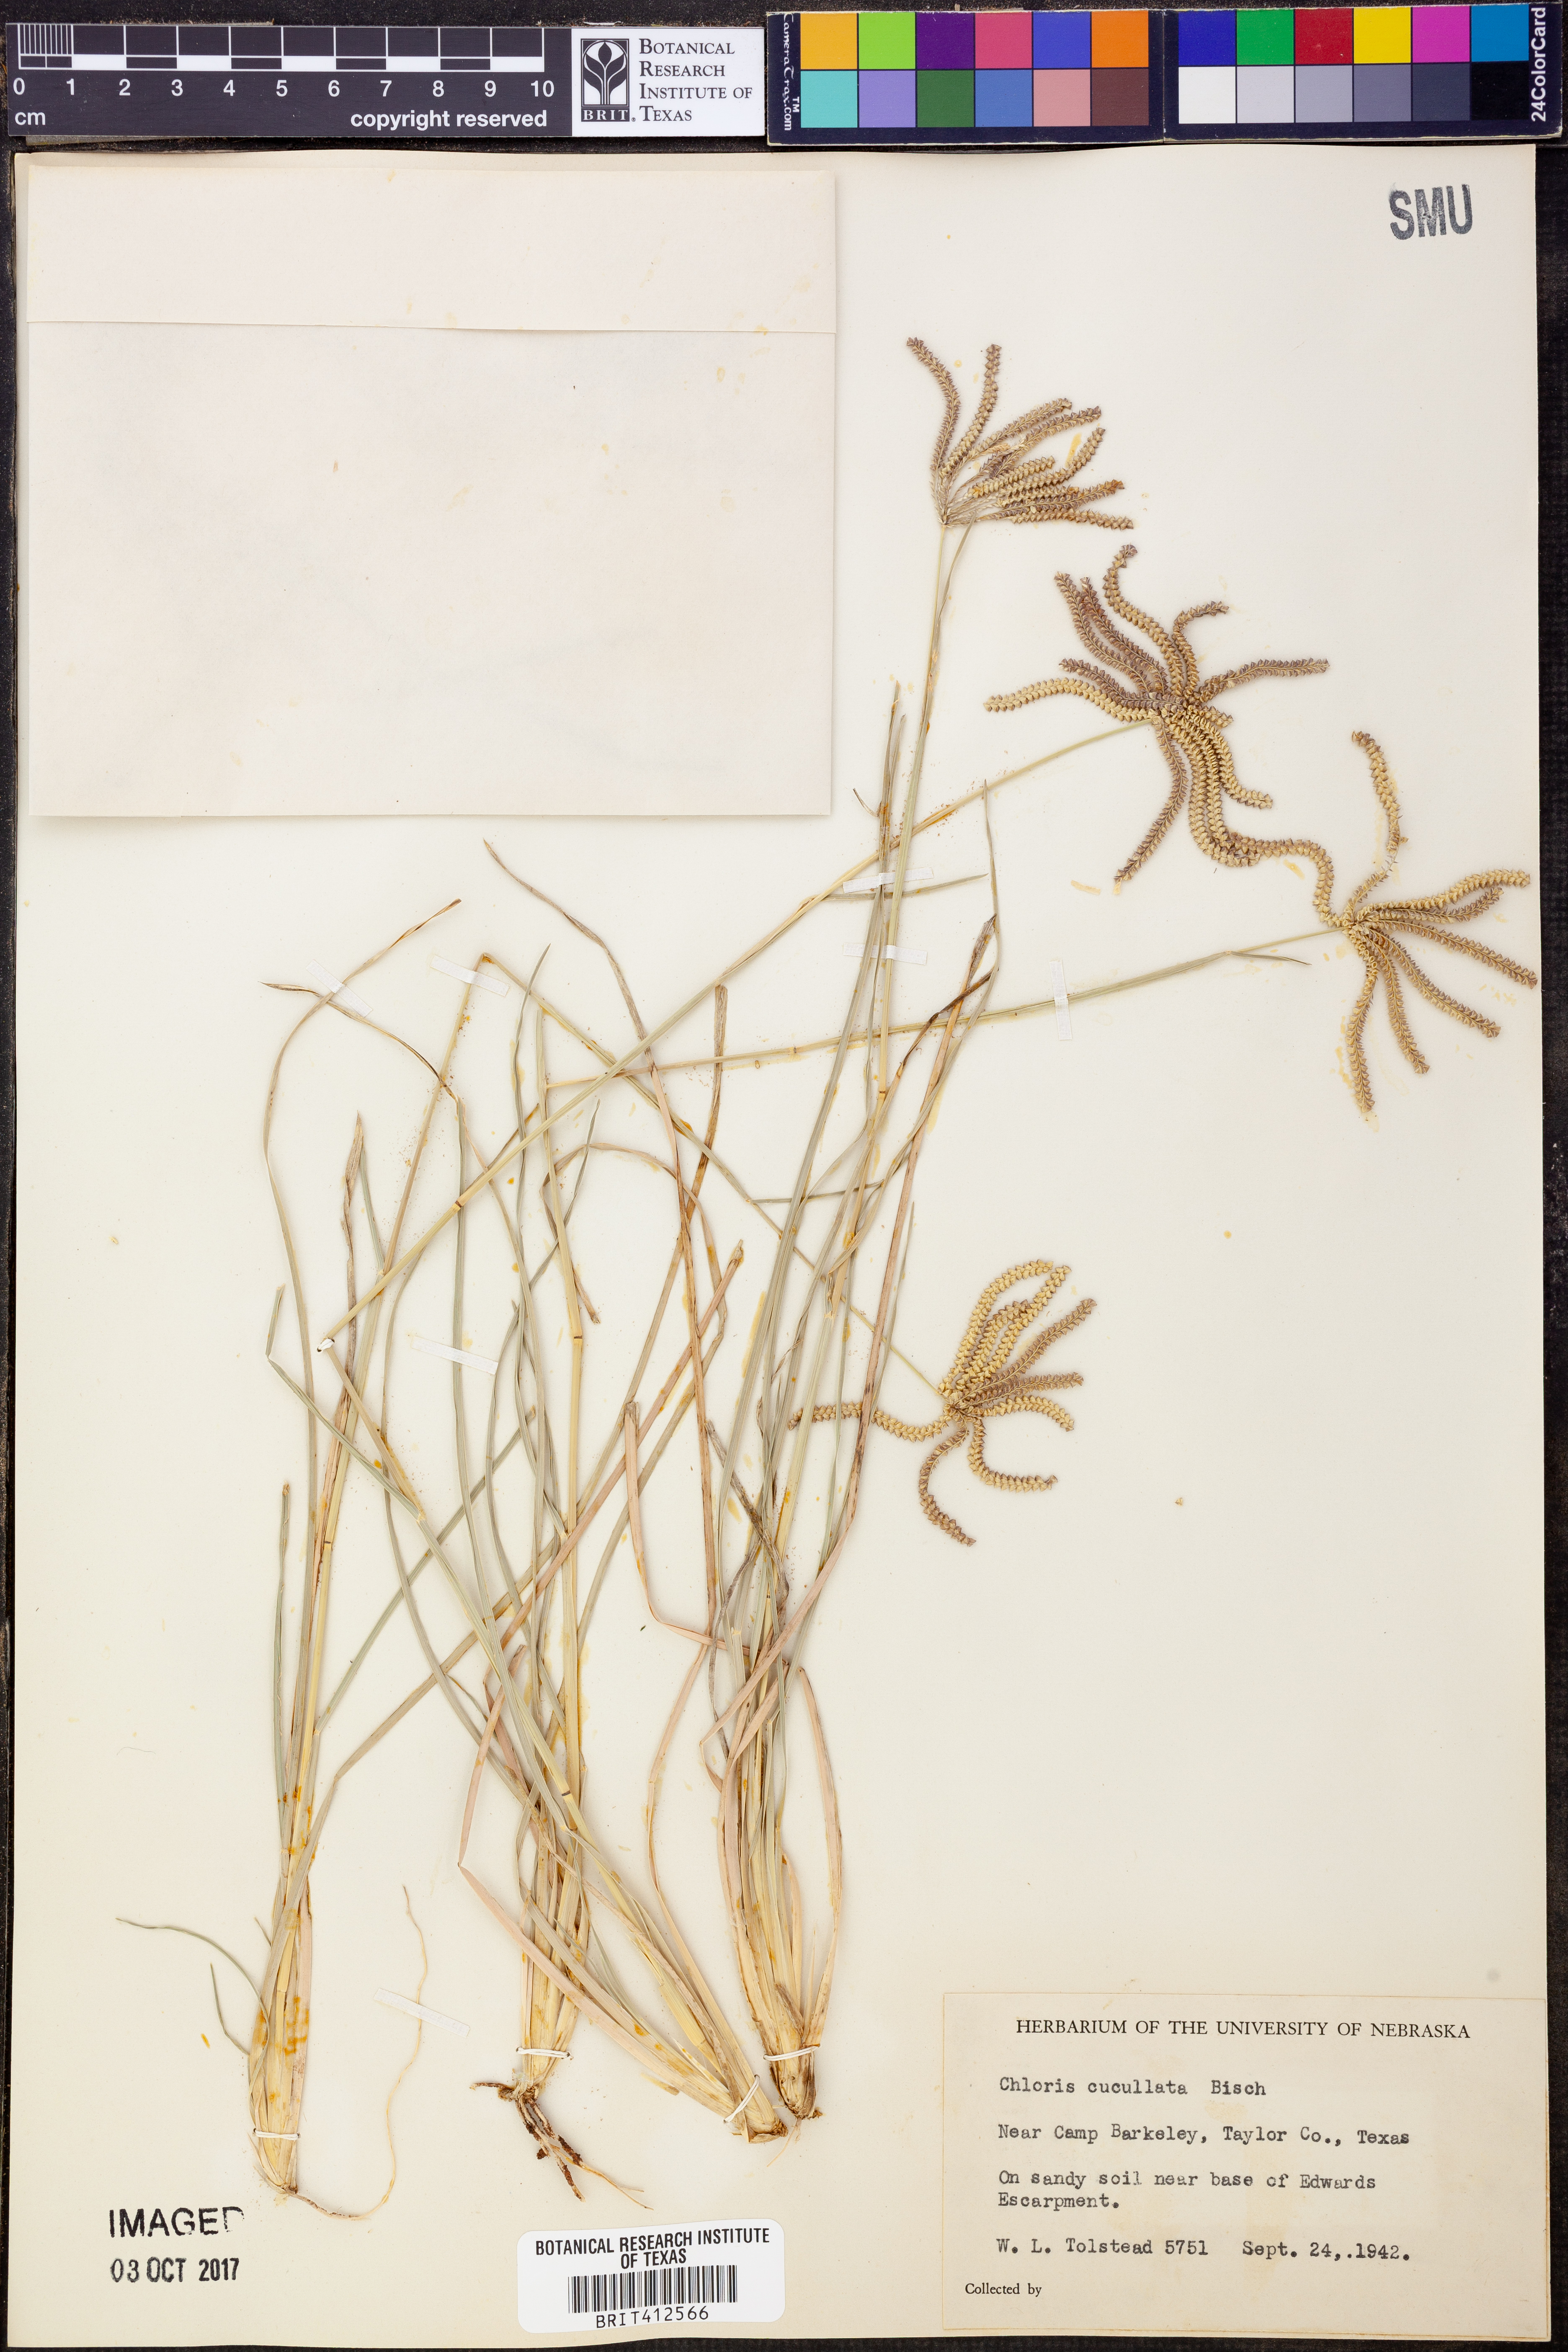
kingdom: Plantae
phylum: Tracheophyta
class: Liliopsida
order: Poales
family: Poaceae
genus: Chloris
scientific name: Chloris cucullata
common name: Hooded windmill grass
